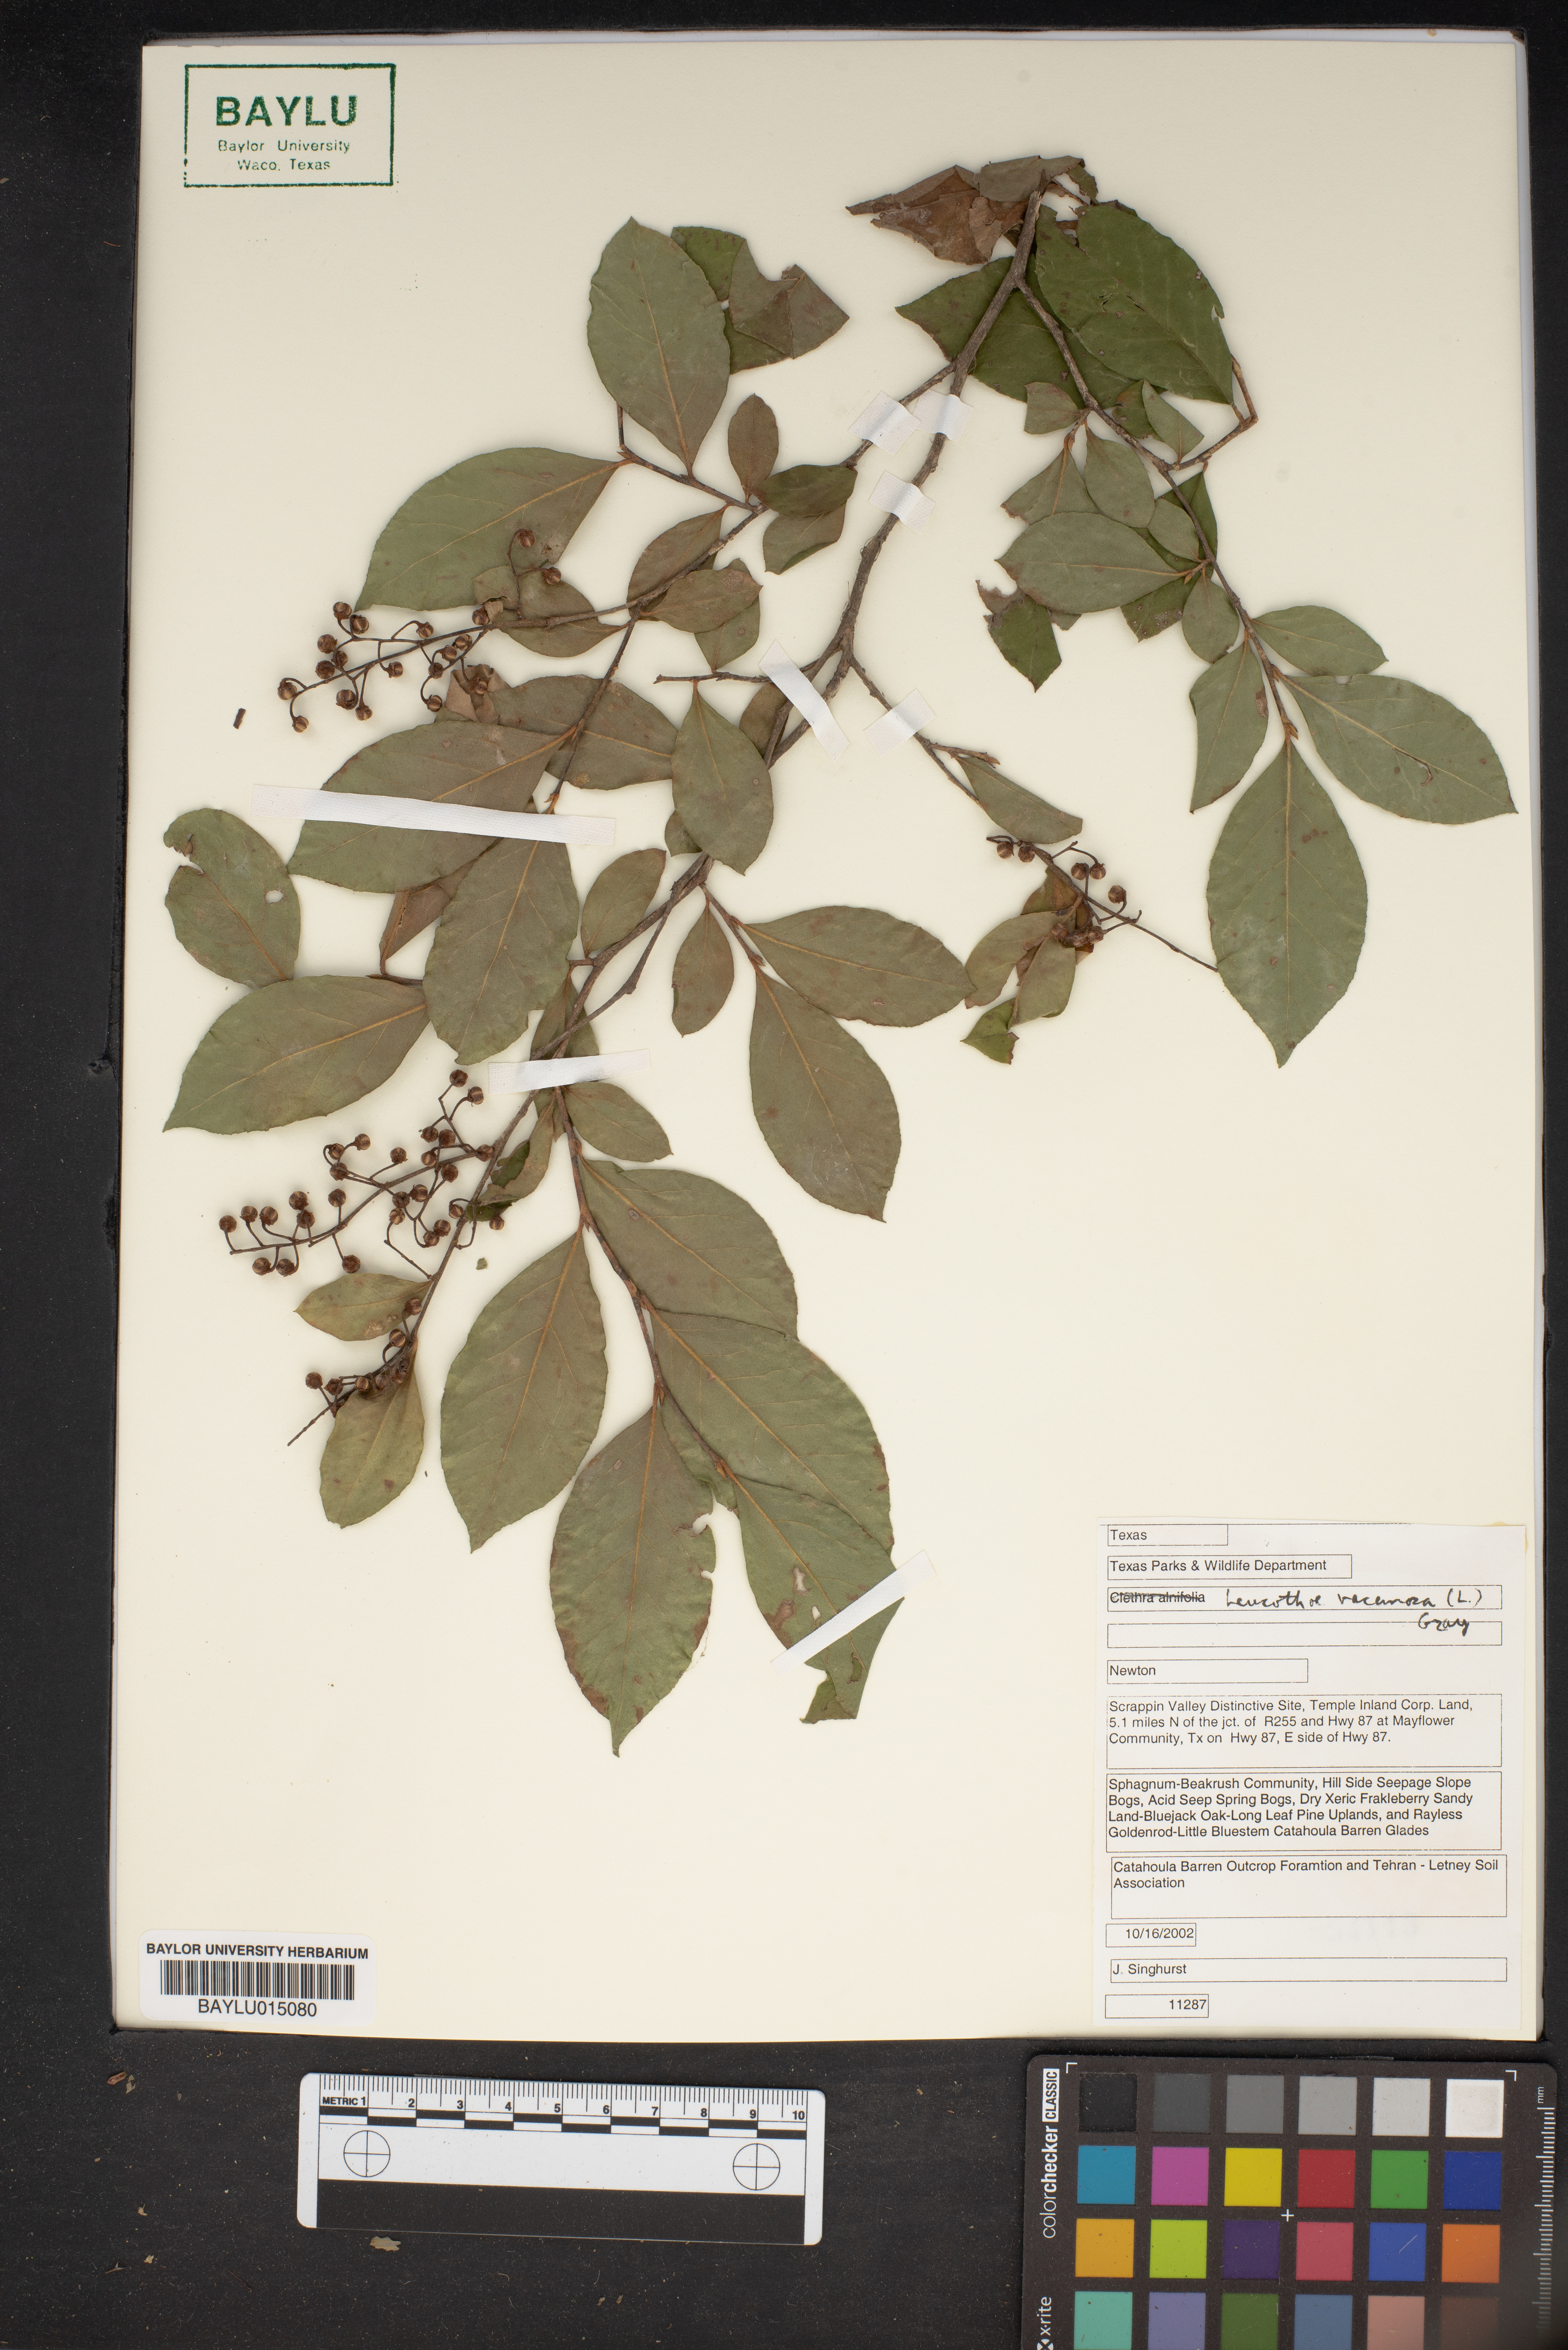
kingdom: Plantae
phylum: Tracheophyta
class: Magnoliopsida
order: Ericales
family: Ericaceae
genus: Eubotrys
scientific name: Eubotrys racemosa
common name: Fetterbush
